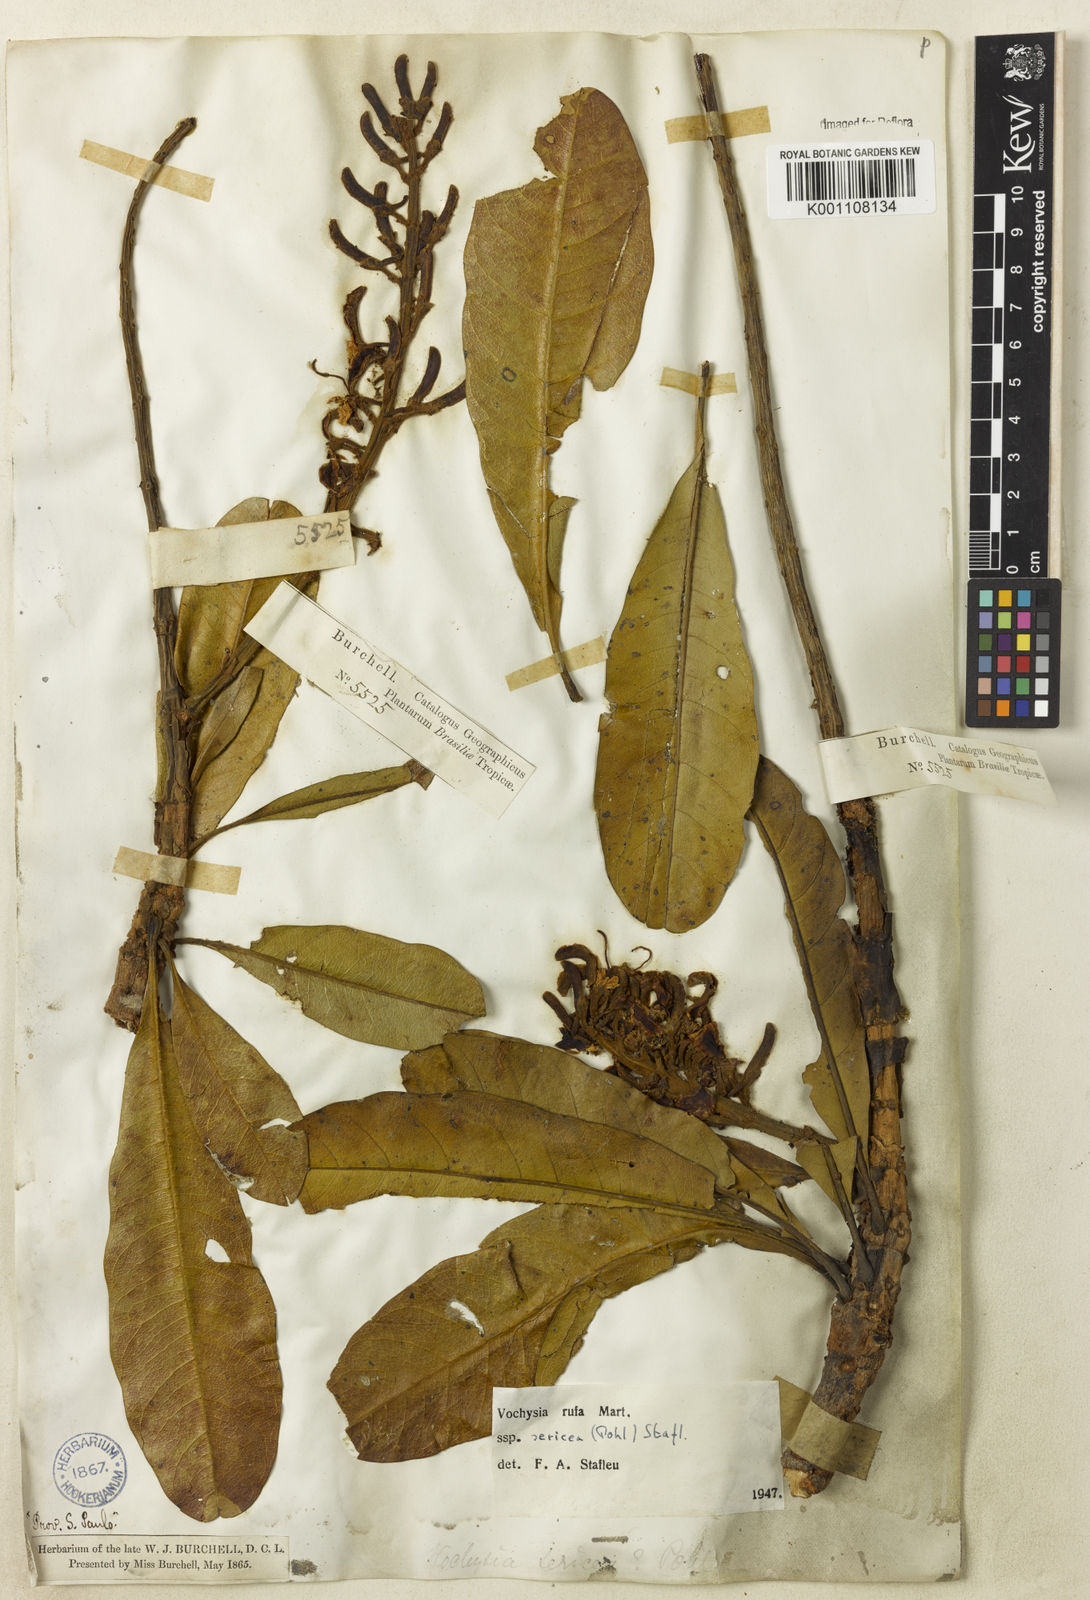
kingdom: Plantae
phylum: Tracheophyta
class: Magnoliopsida
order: Myrtales
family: Vochysiaceae
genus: Vochysia
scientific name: Vochysia rufa
